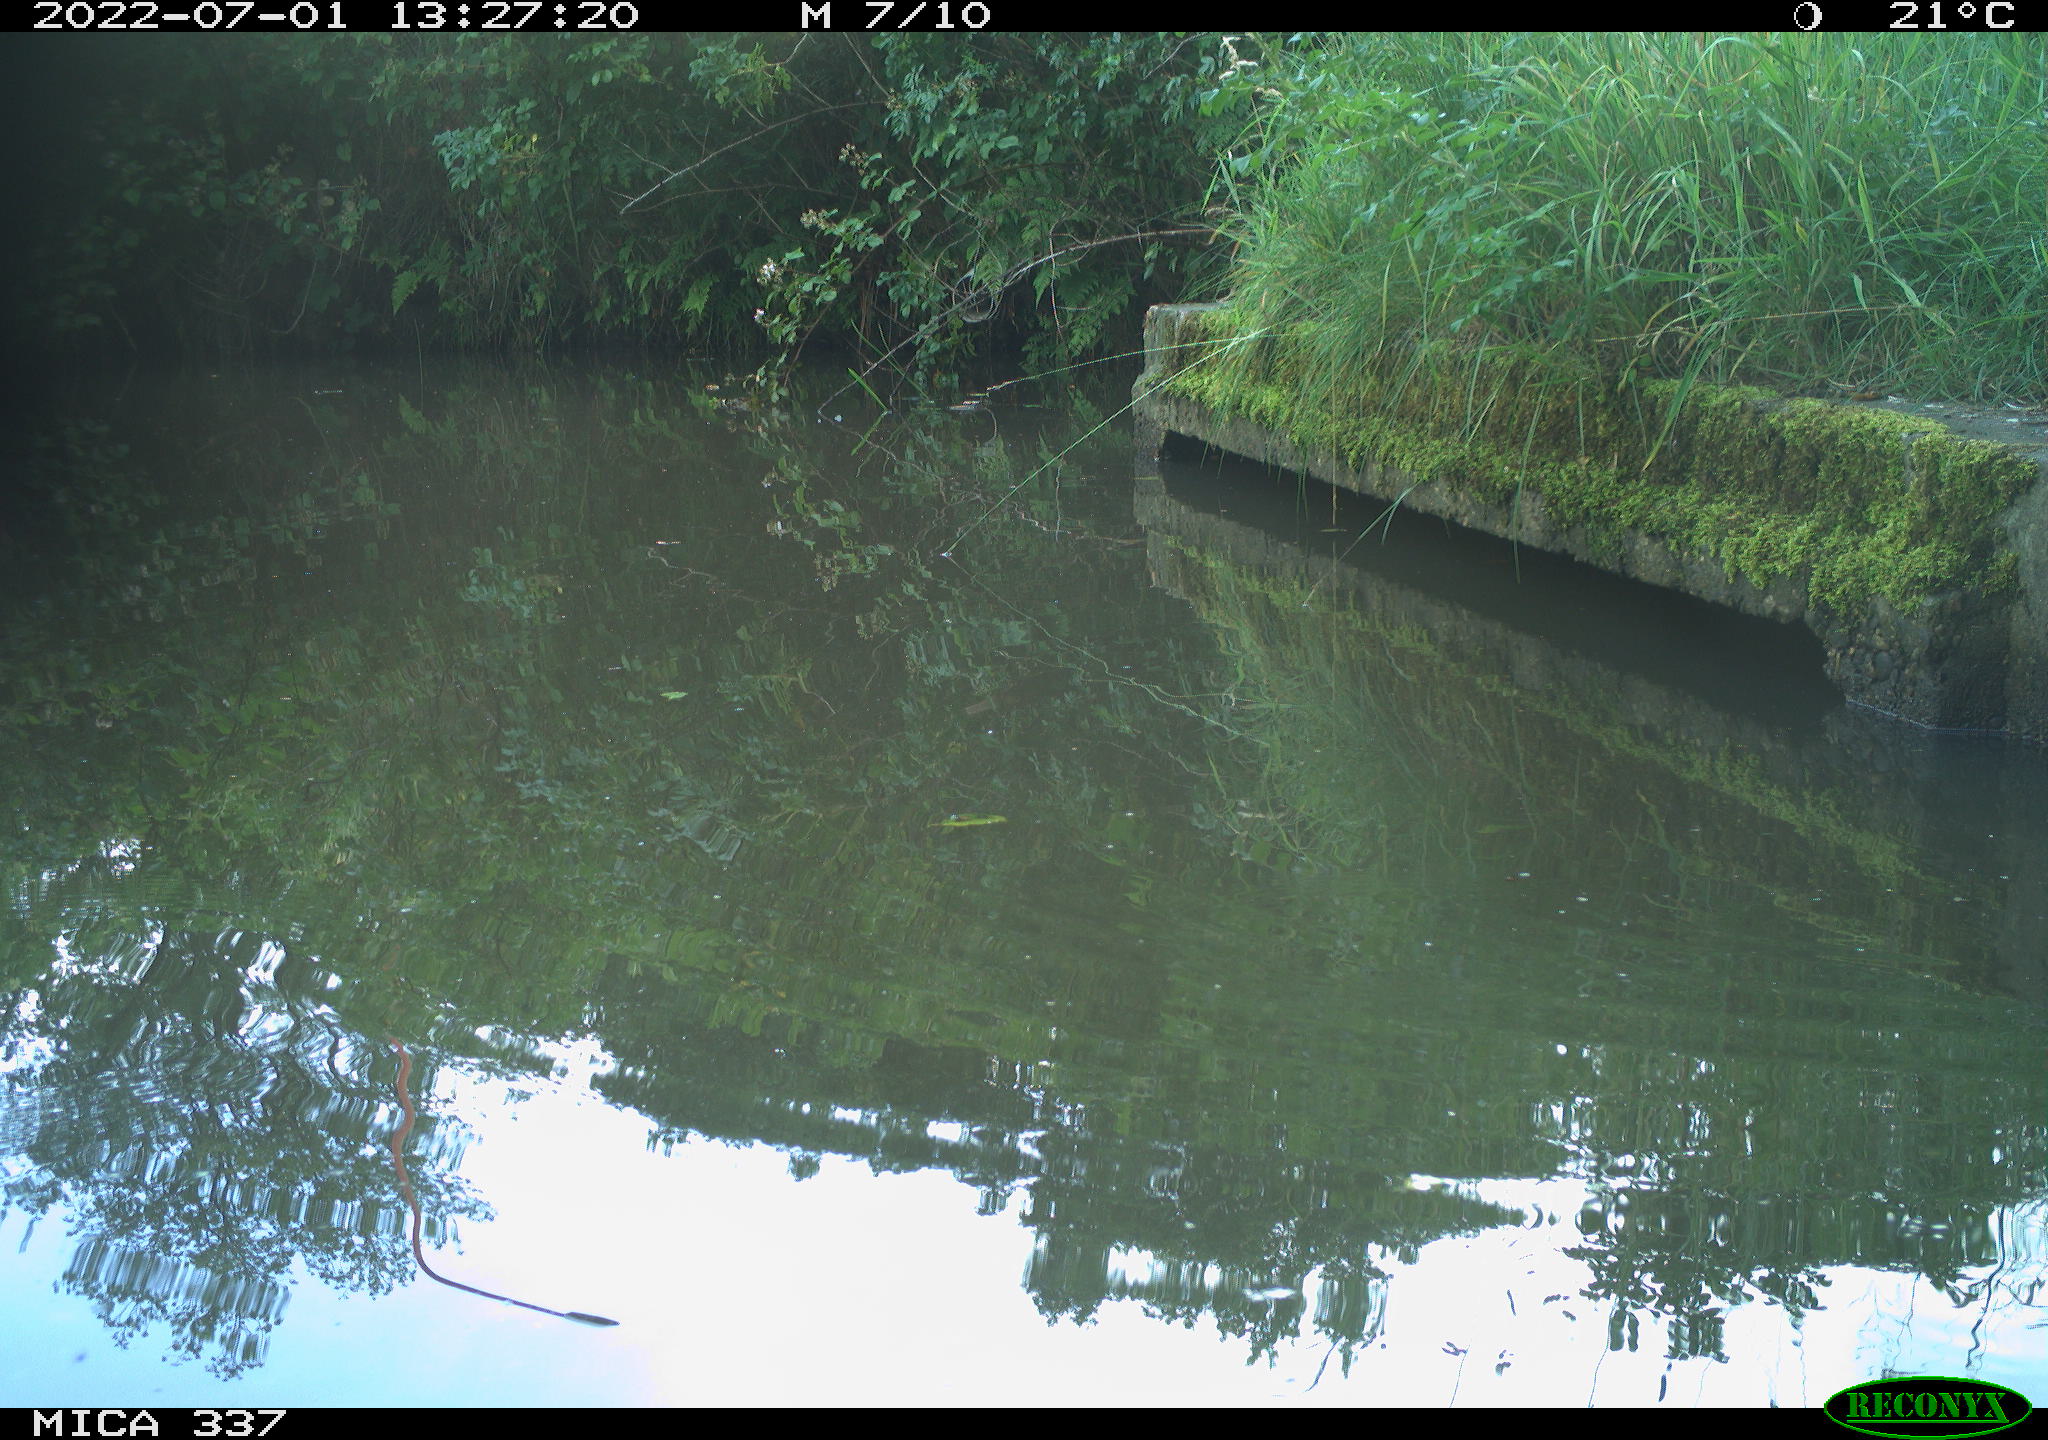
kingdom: Animalia
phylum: Chordata
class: Aves
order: Gruiformes
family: Rallidae
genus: Gallinula
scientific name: Gallinula chloropus
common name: Common moorhen
